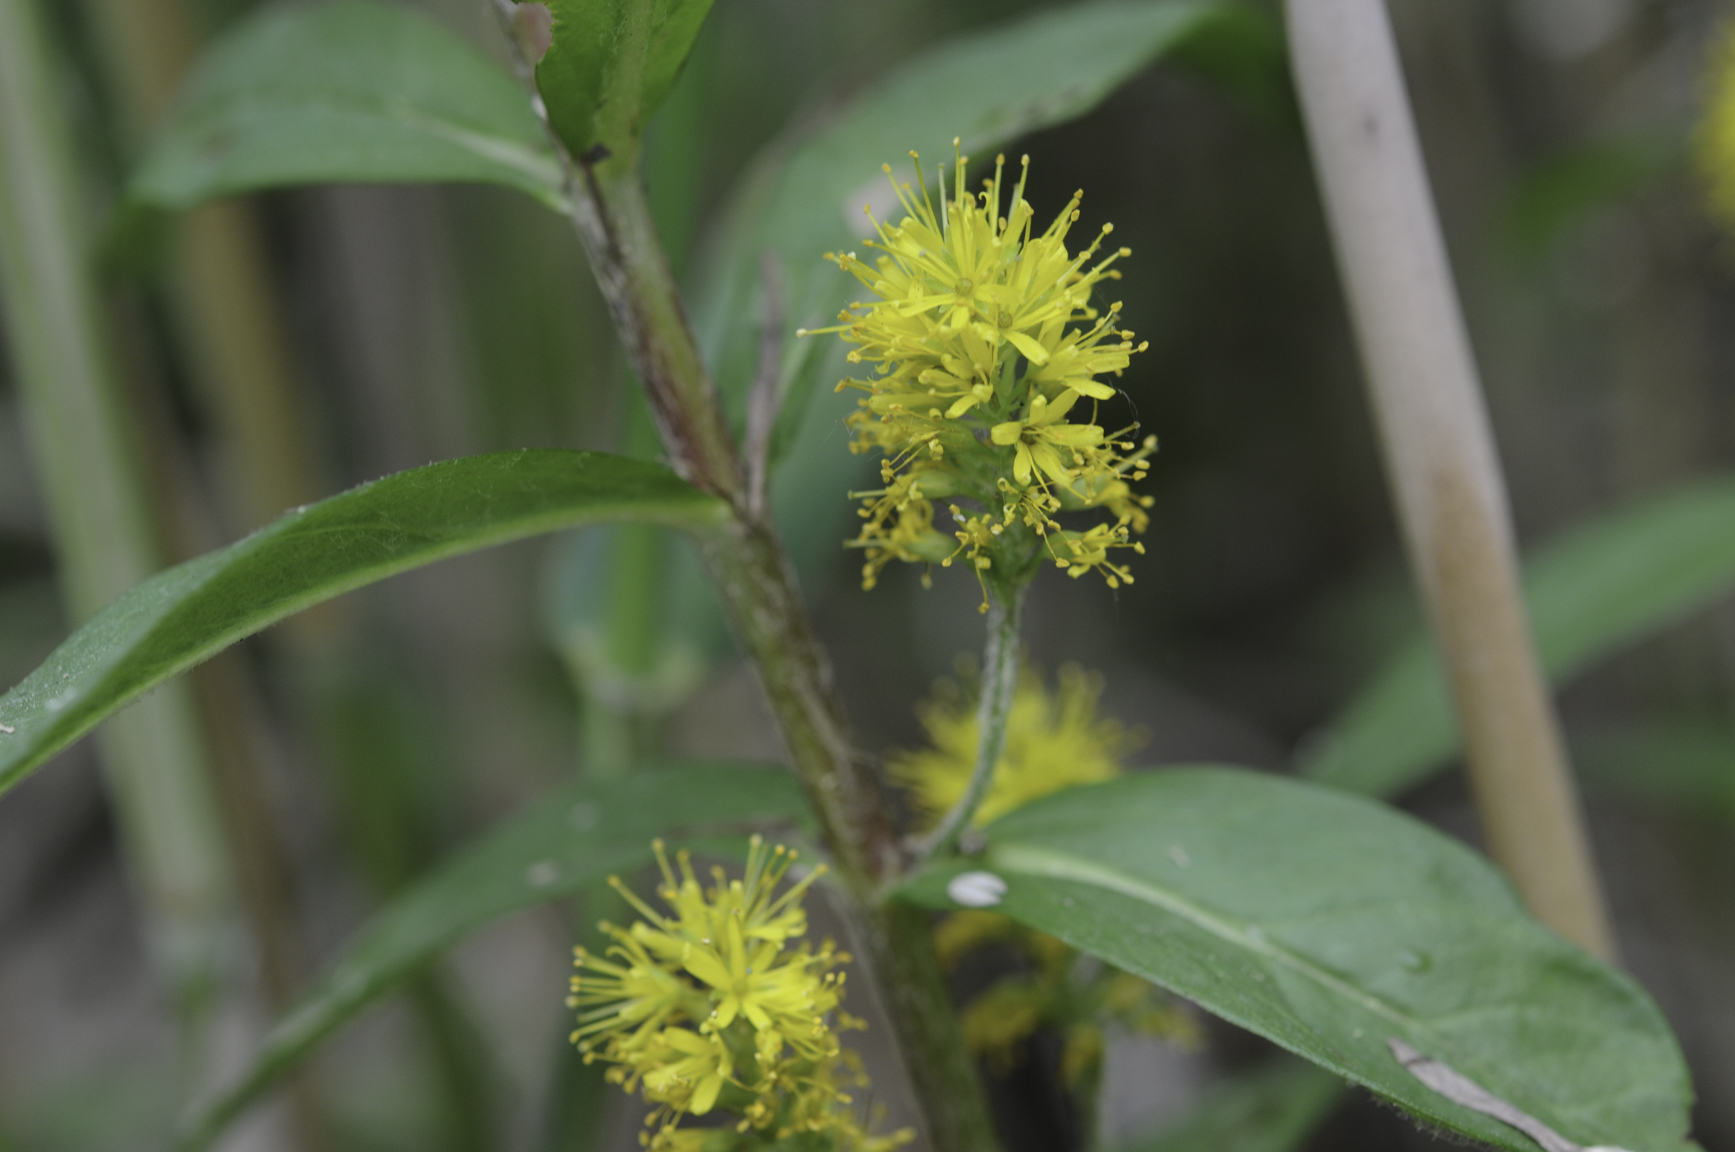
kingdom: Plantae
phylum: Tracheophyta
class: Magnoliopsida
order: Ericales
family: Primulaceae
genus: Lysimachia
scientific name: Lysimachia thyrsiflora
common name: Tufted loosestrife
